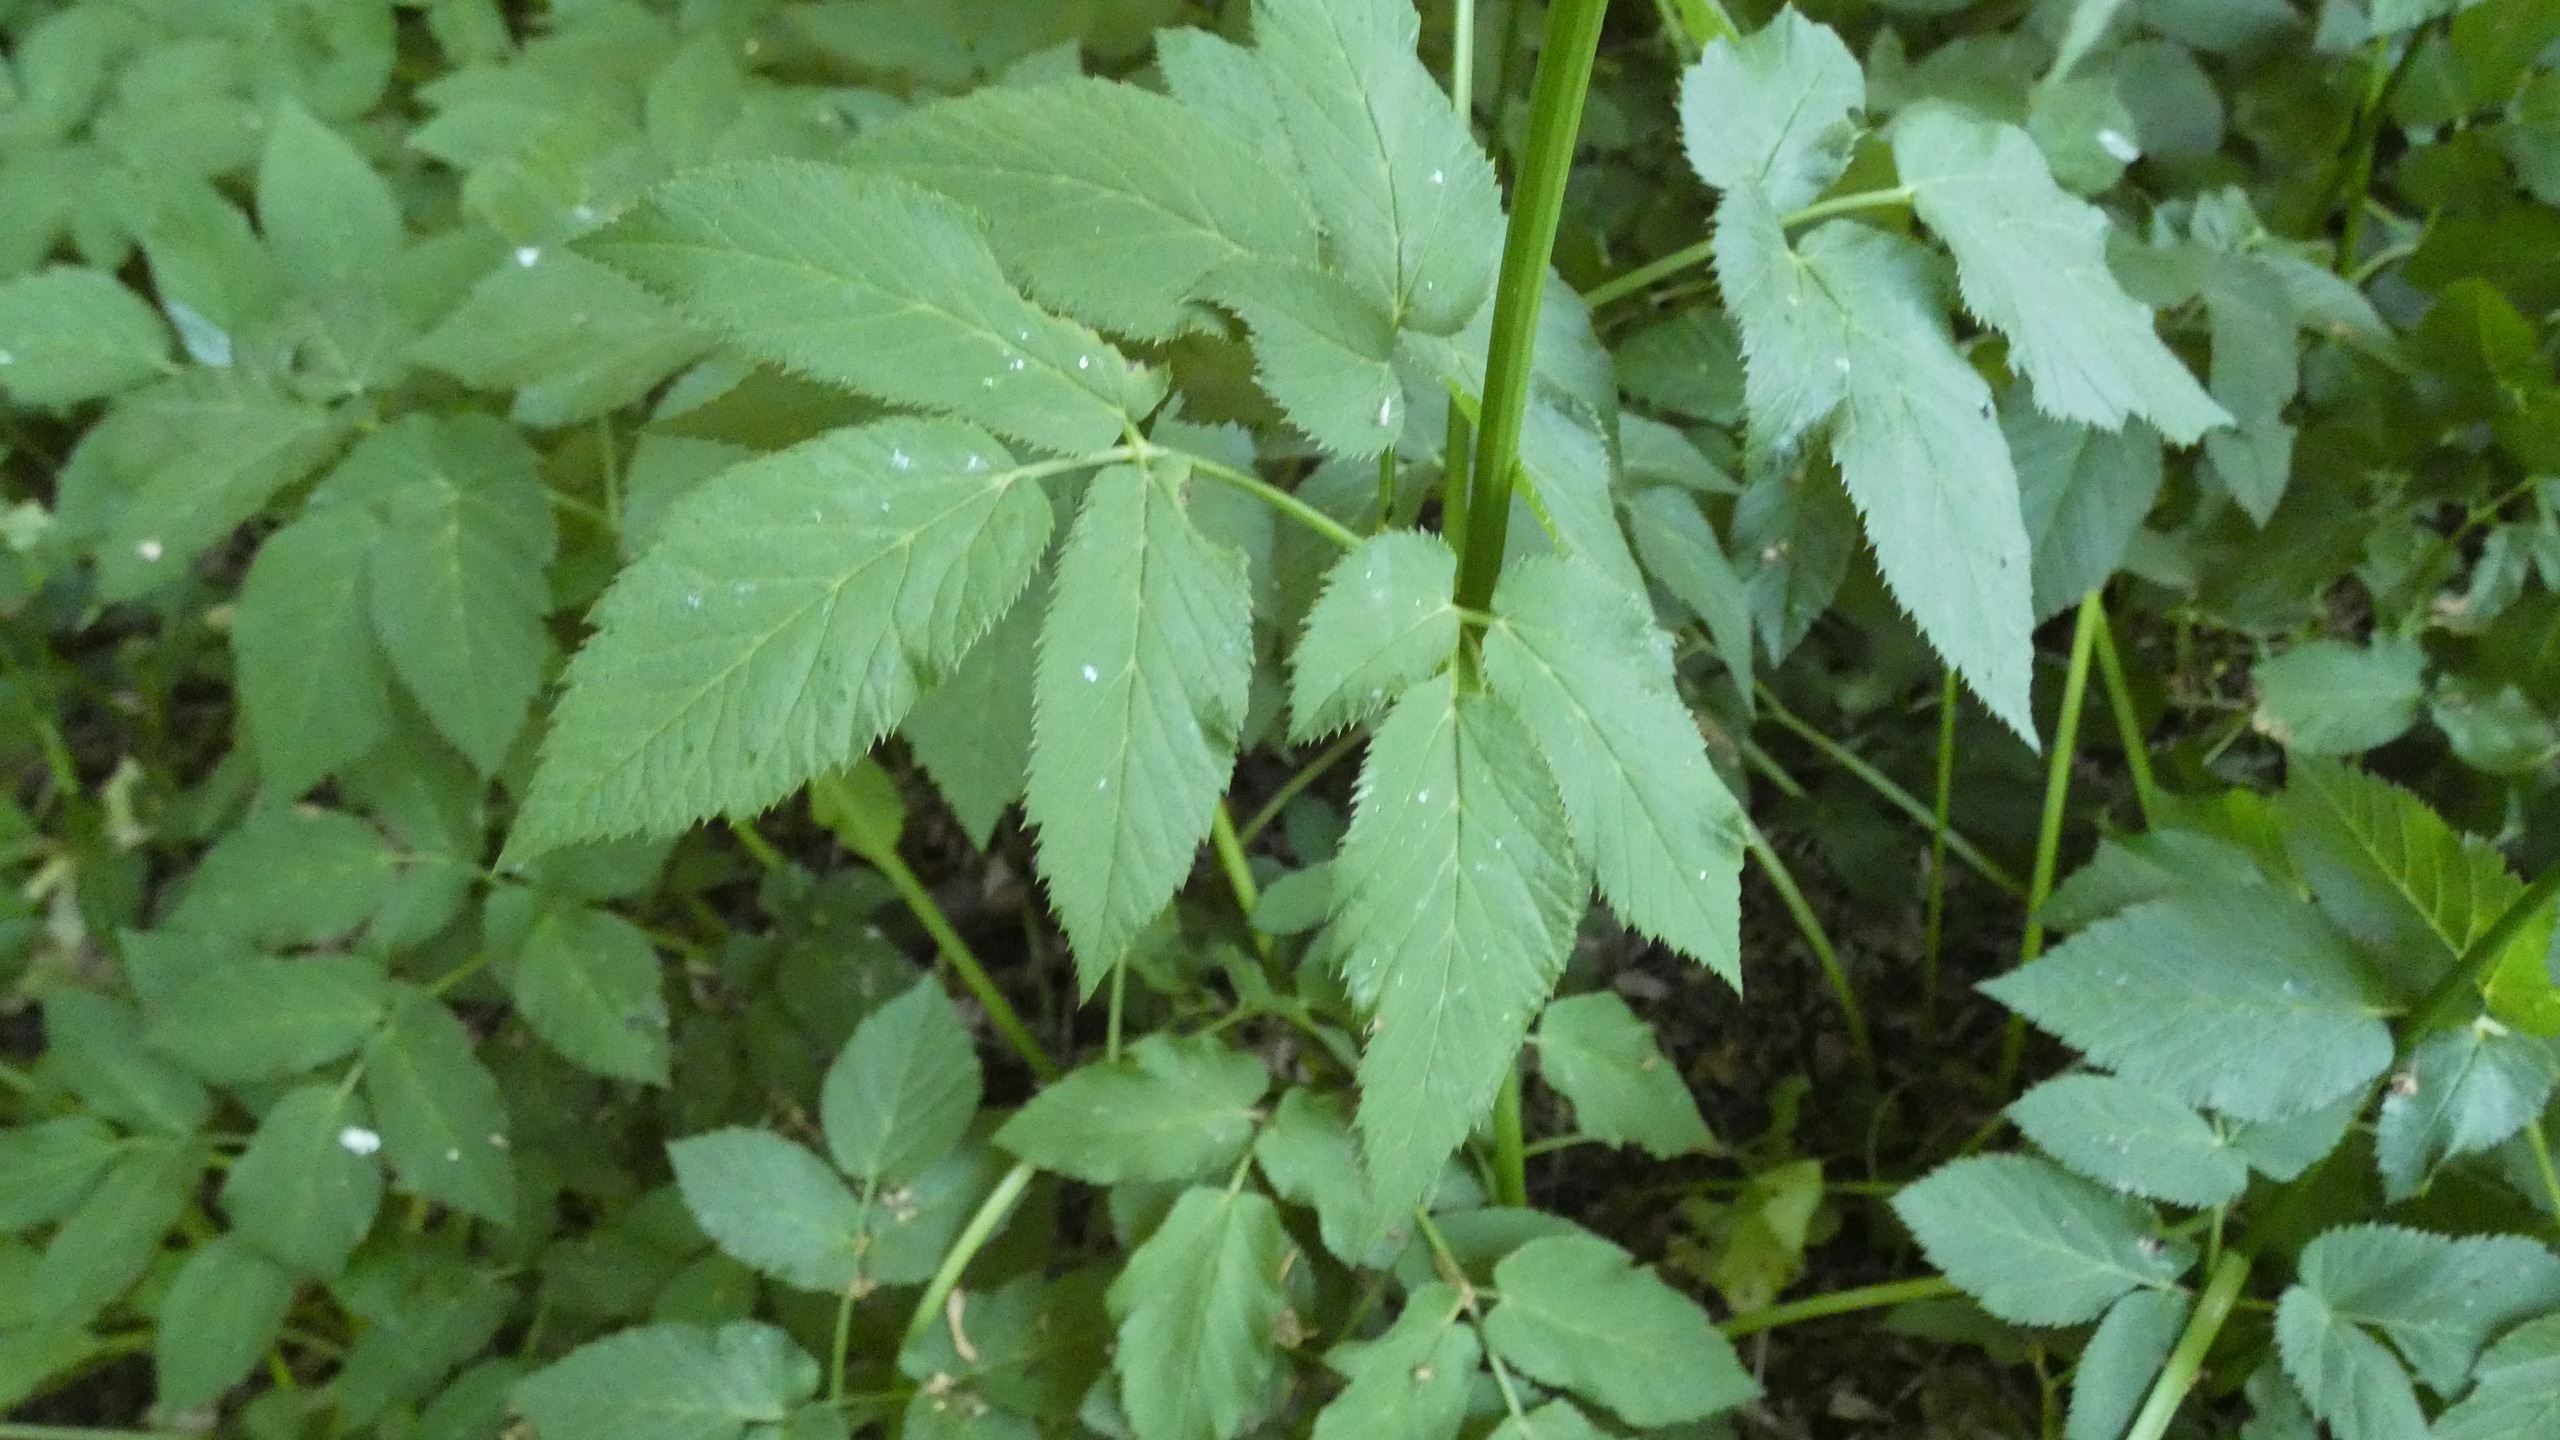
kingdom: Plantae
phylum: Tracheophyta
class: Magnoliopsida
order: Apiales
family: Apiaceae
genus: Aegopodium
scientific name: Aegopodium podagraria
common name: Skvalderkål
